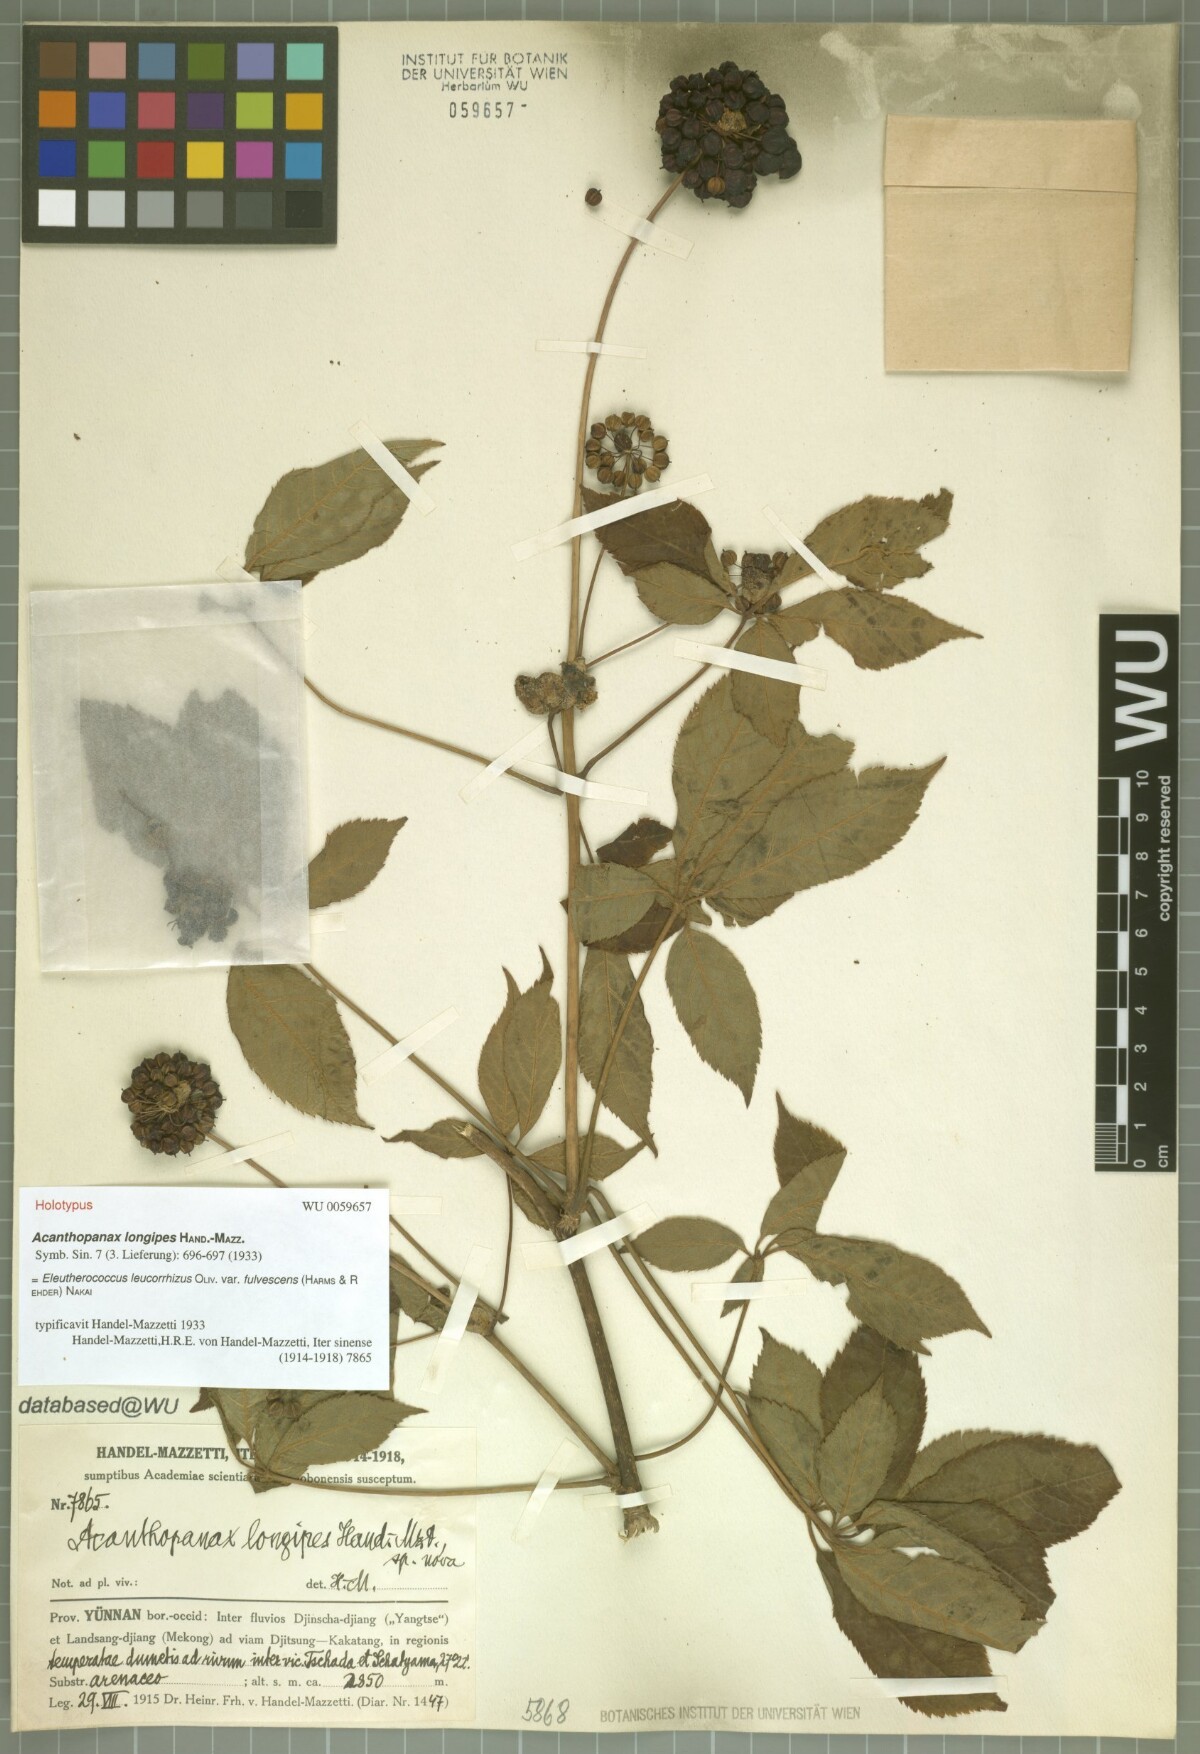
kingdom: Plantae
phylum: Tracheophyta
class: Magnoliopsida
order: Apiales
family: Araliaceae
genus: Eleutherococcus
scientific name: Eleutherococcus leucorrhizus
